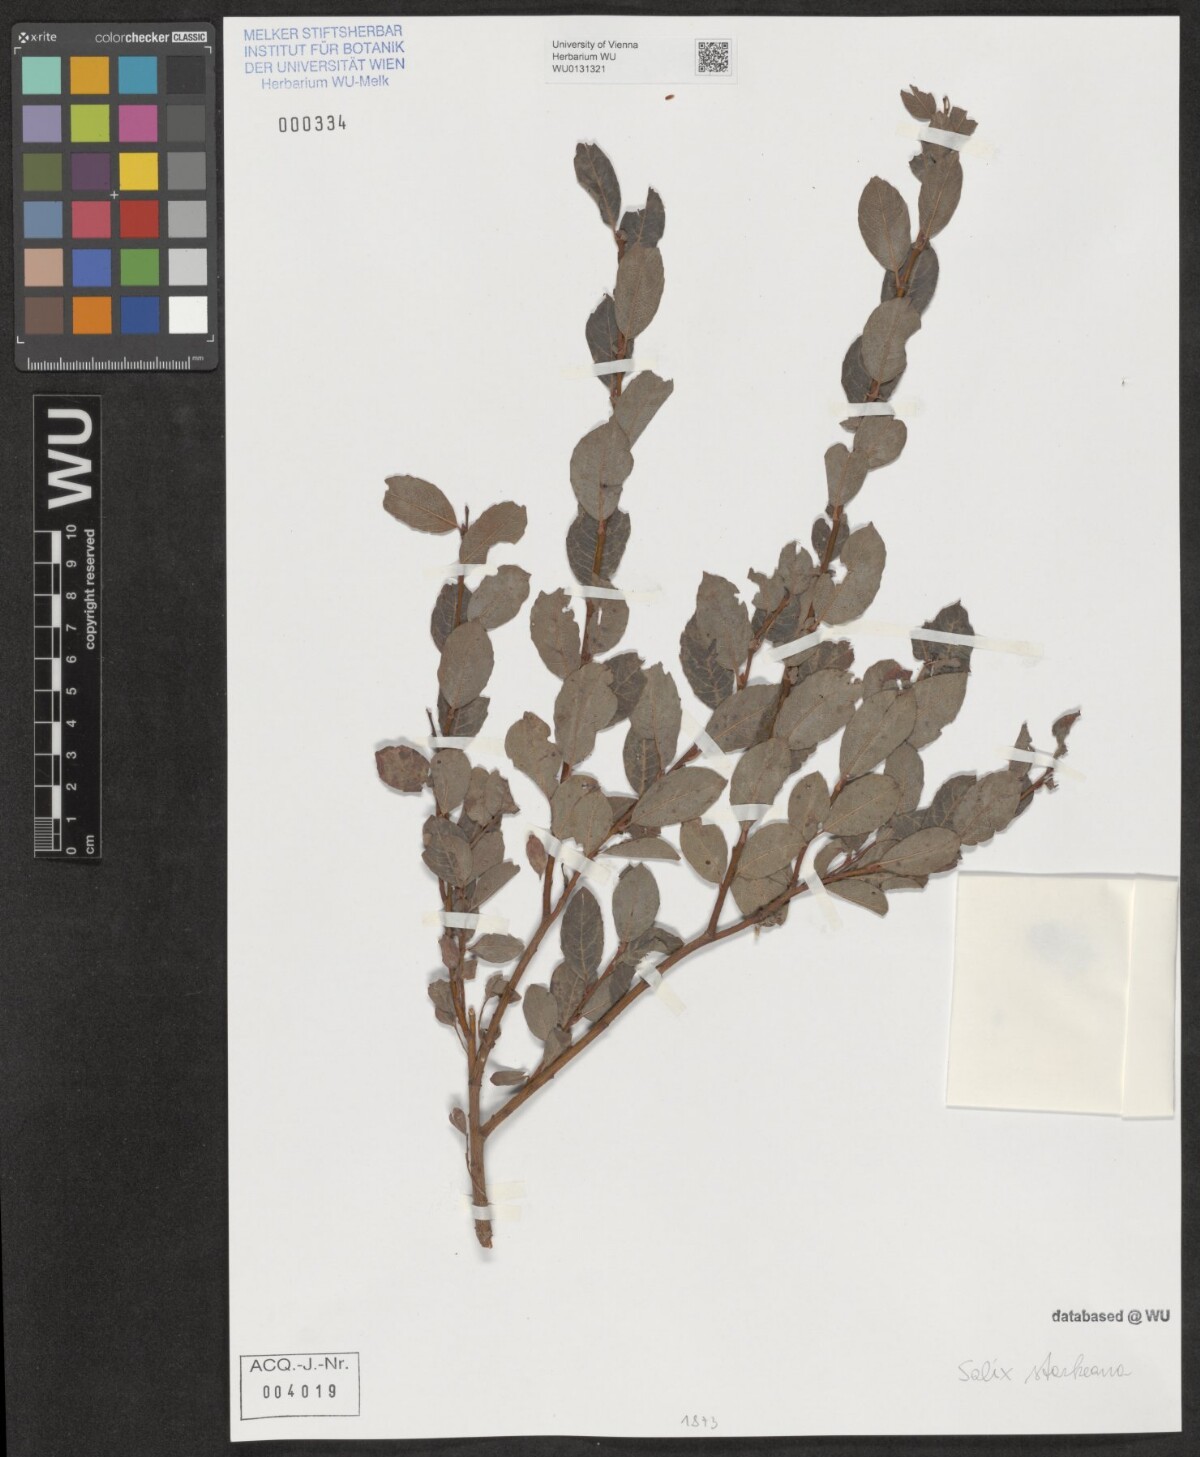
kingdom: Plantae
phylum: Tracheophyta
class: Magnoliopsida
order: Malpighiales
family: Salicaceae
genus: Salix
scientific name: Salix starkeana
